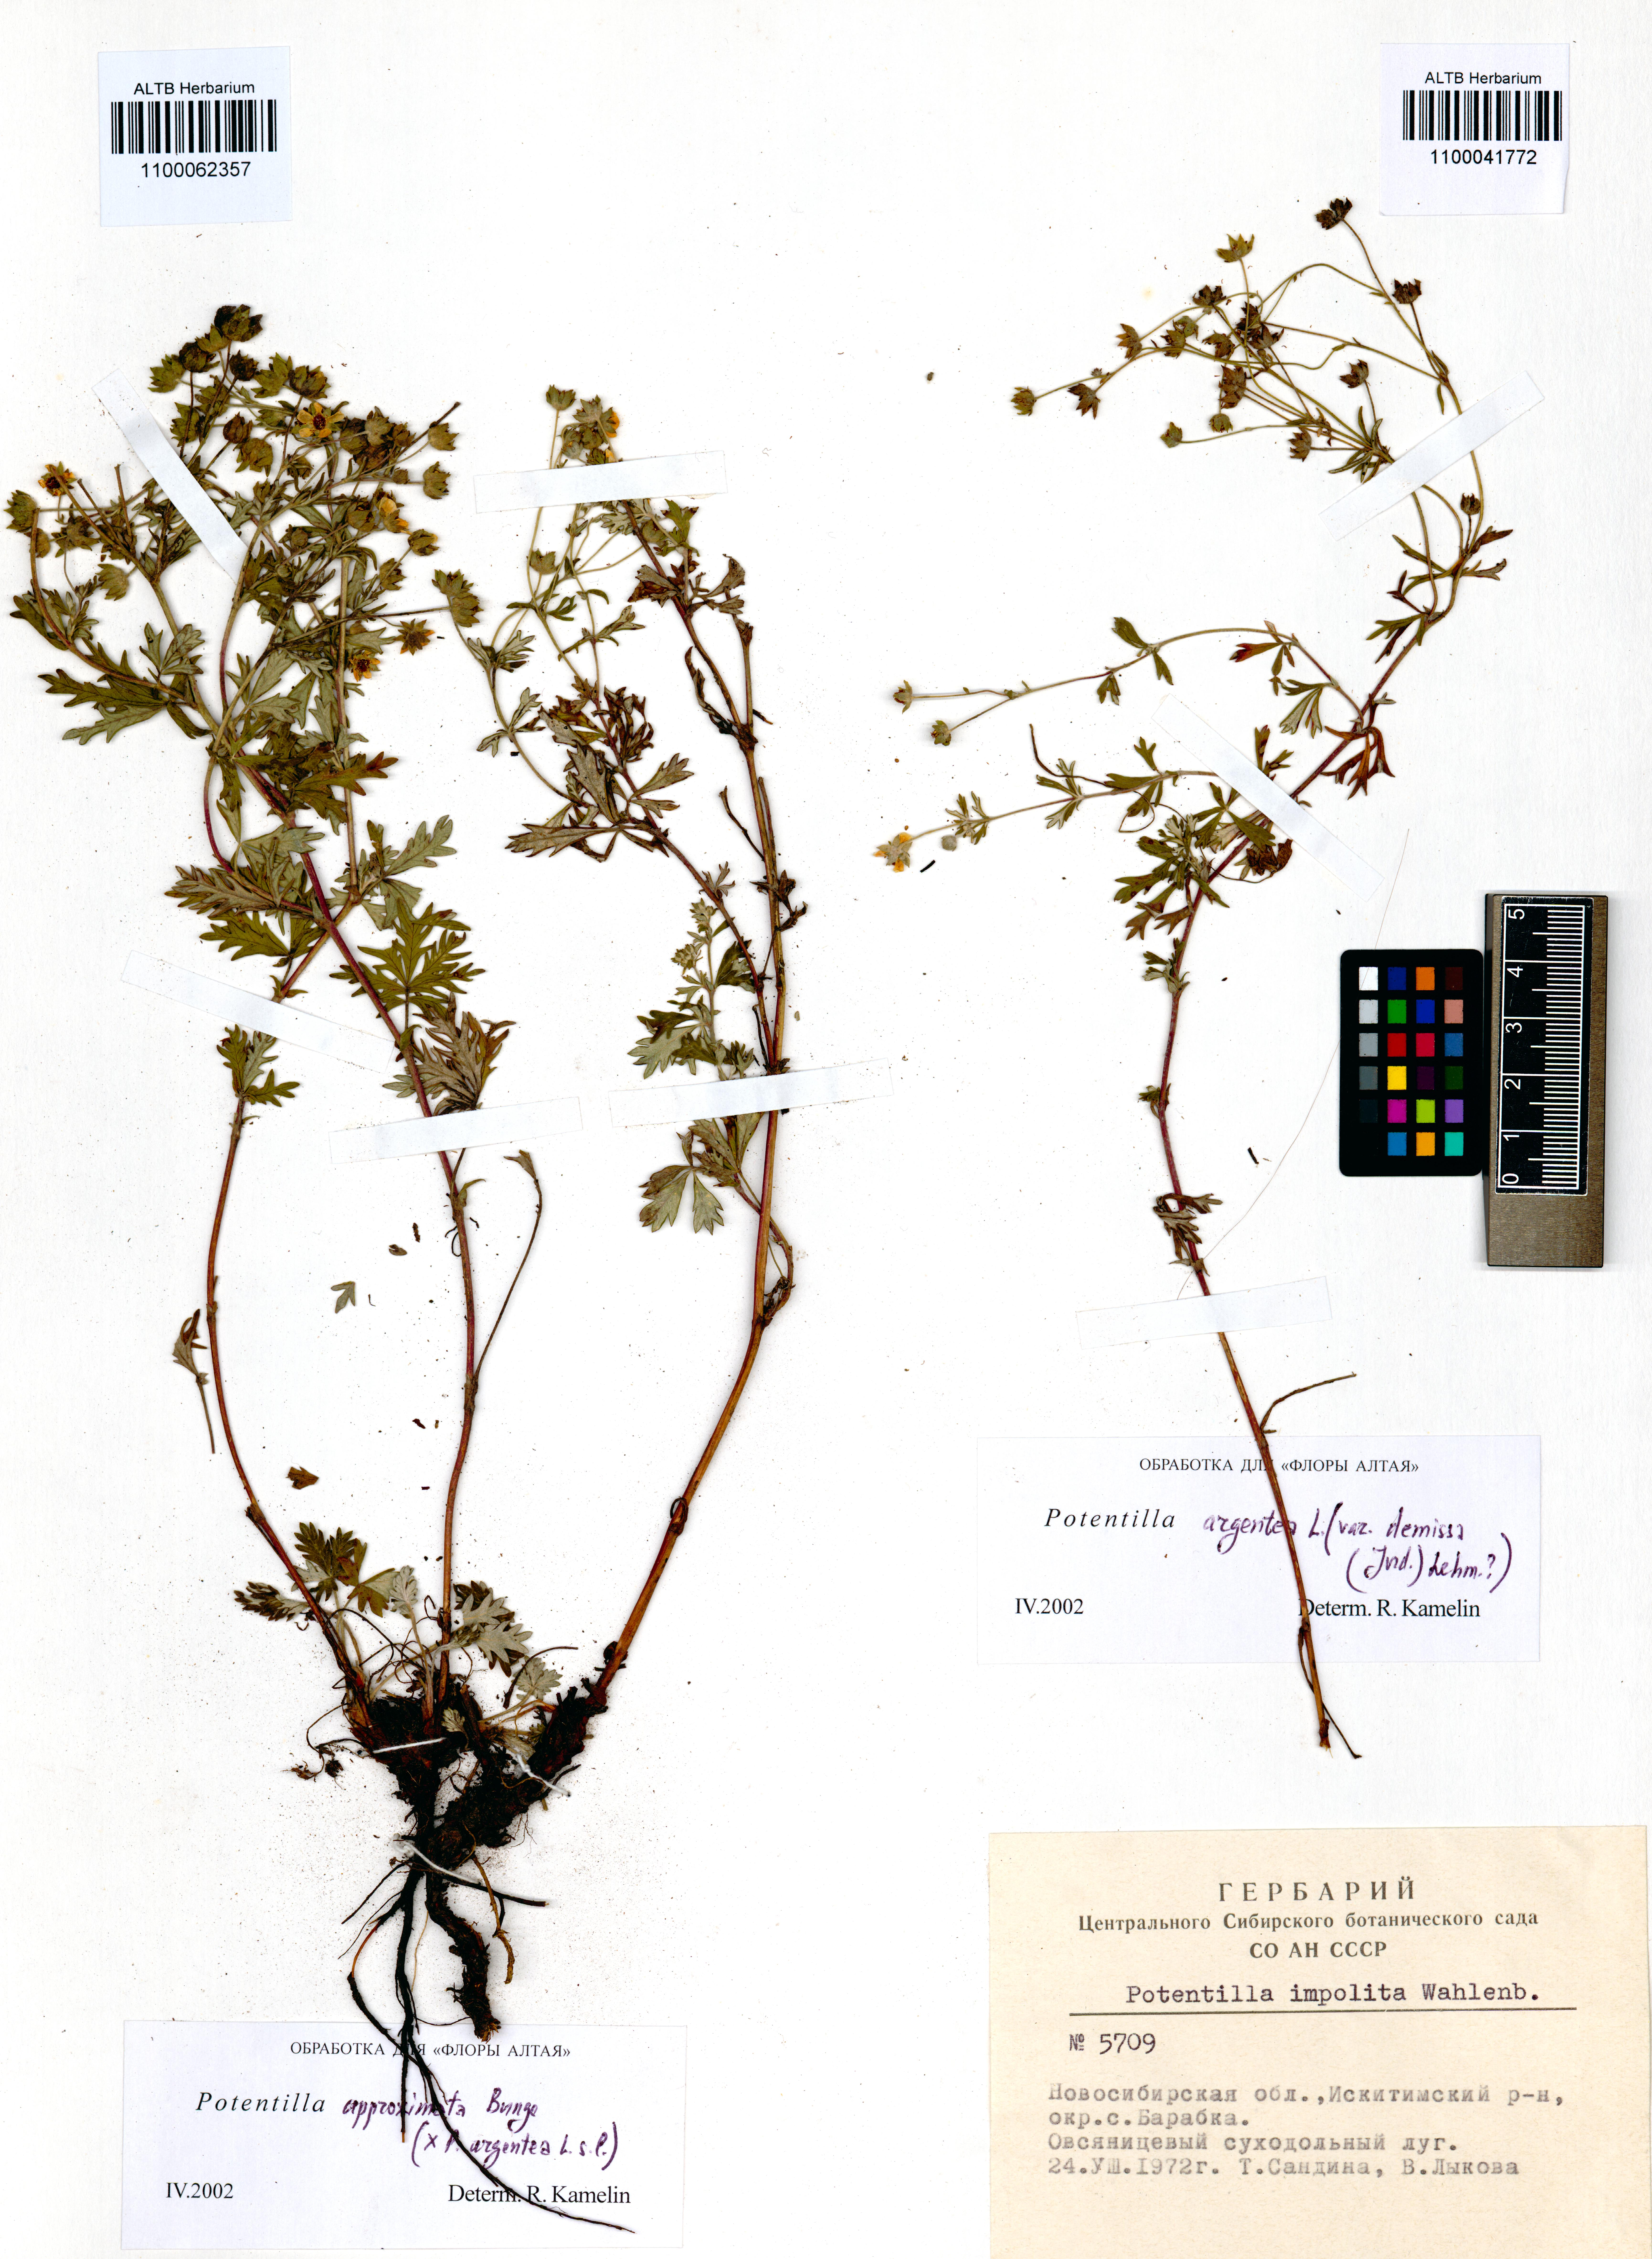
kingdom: Plantae
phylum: Tracheophyta
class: Magnoliopsida
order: Rosales
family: Rosaceae
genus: Potentilla
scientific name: Potentilla argentea
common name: Hoary cinquefoil
